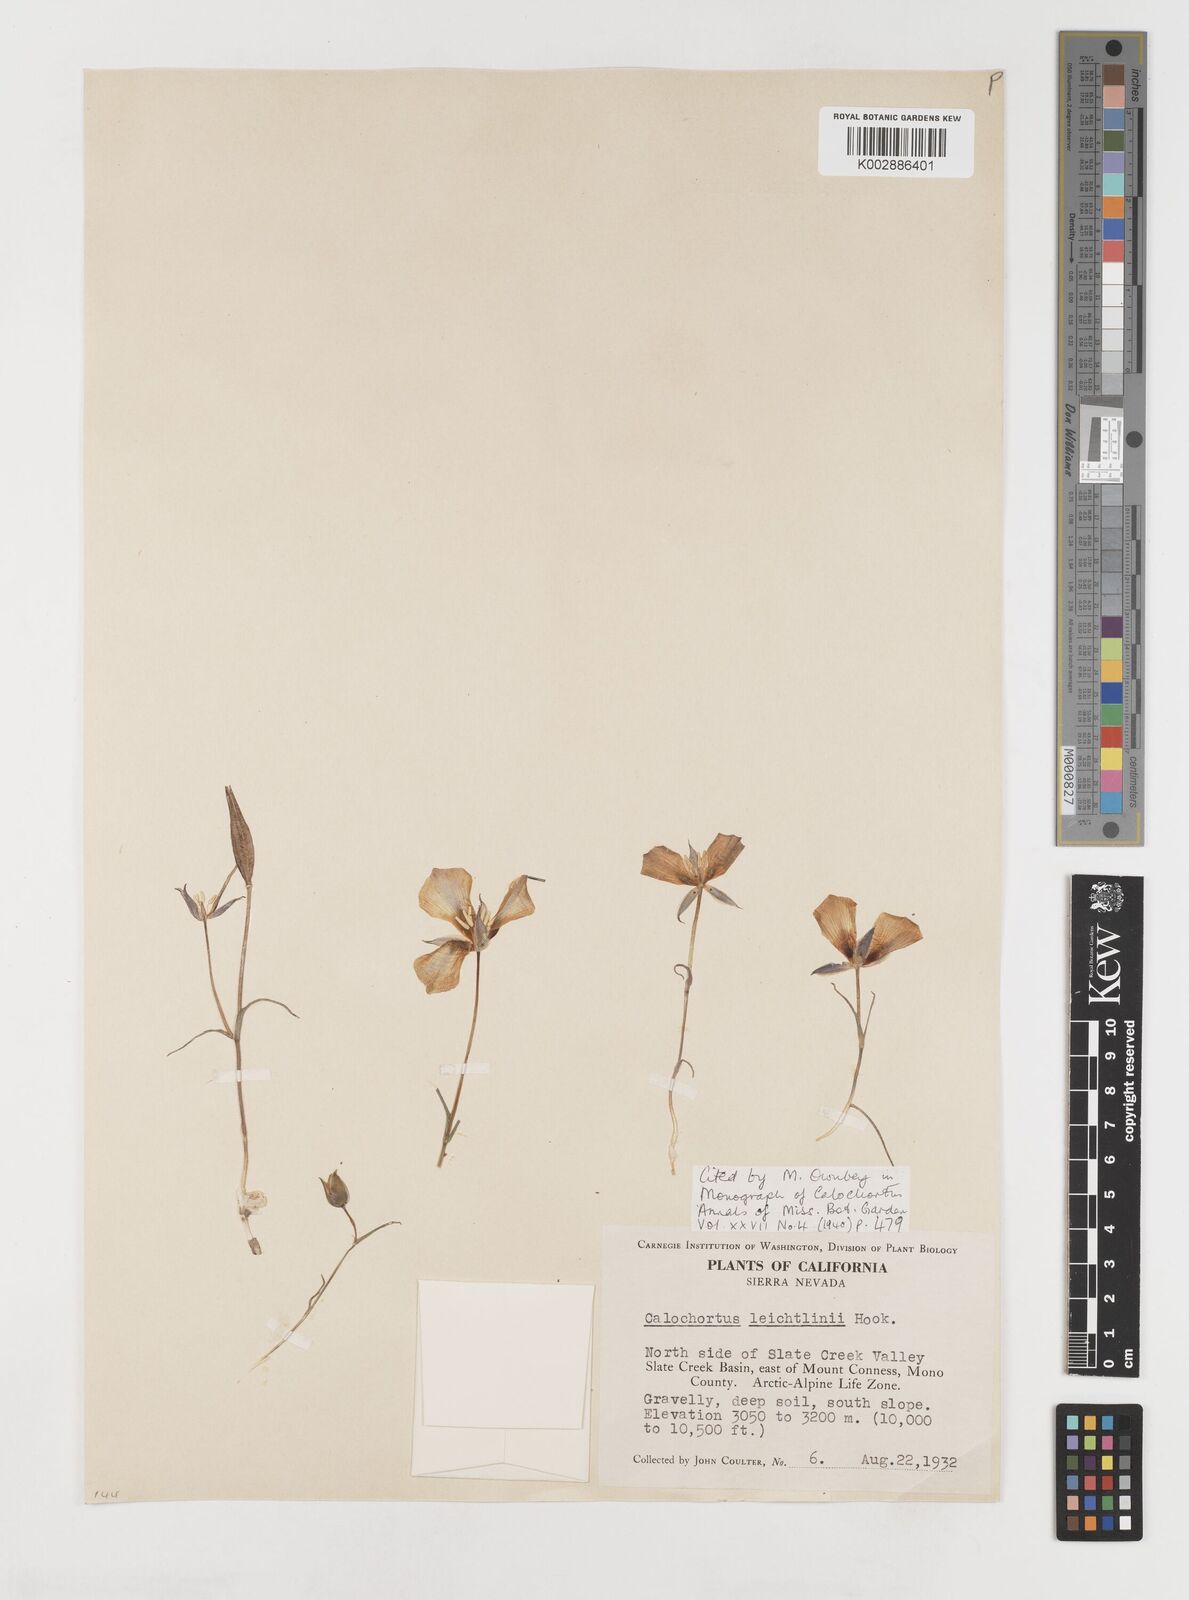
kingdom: Plantae
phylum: Tracheophyta
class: Liliopsida
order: Liliales
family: Liliaceae
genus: Calochortus
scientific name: Calochortus leichtlinii
